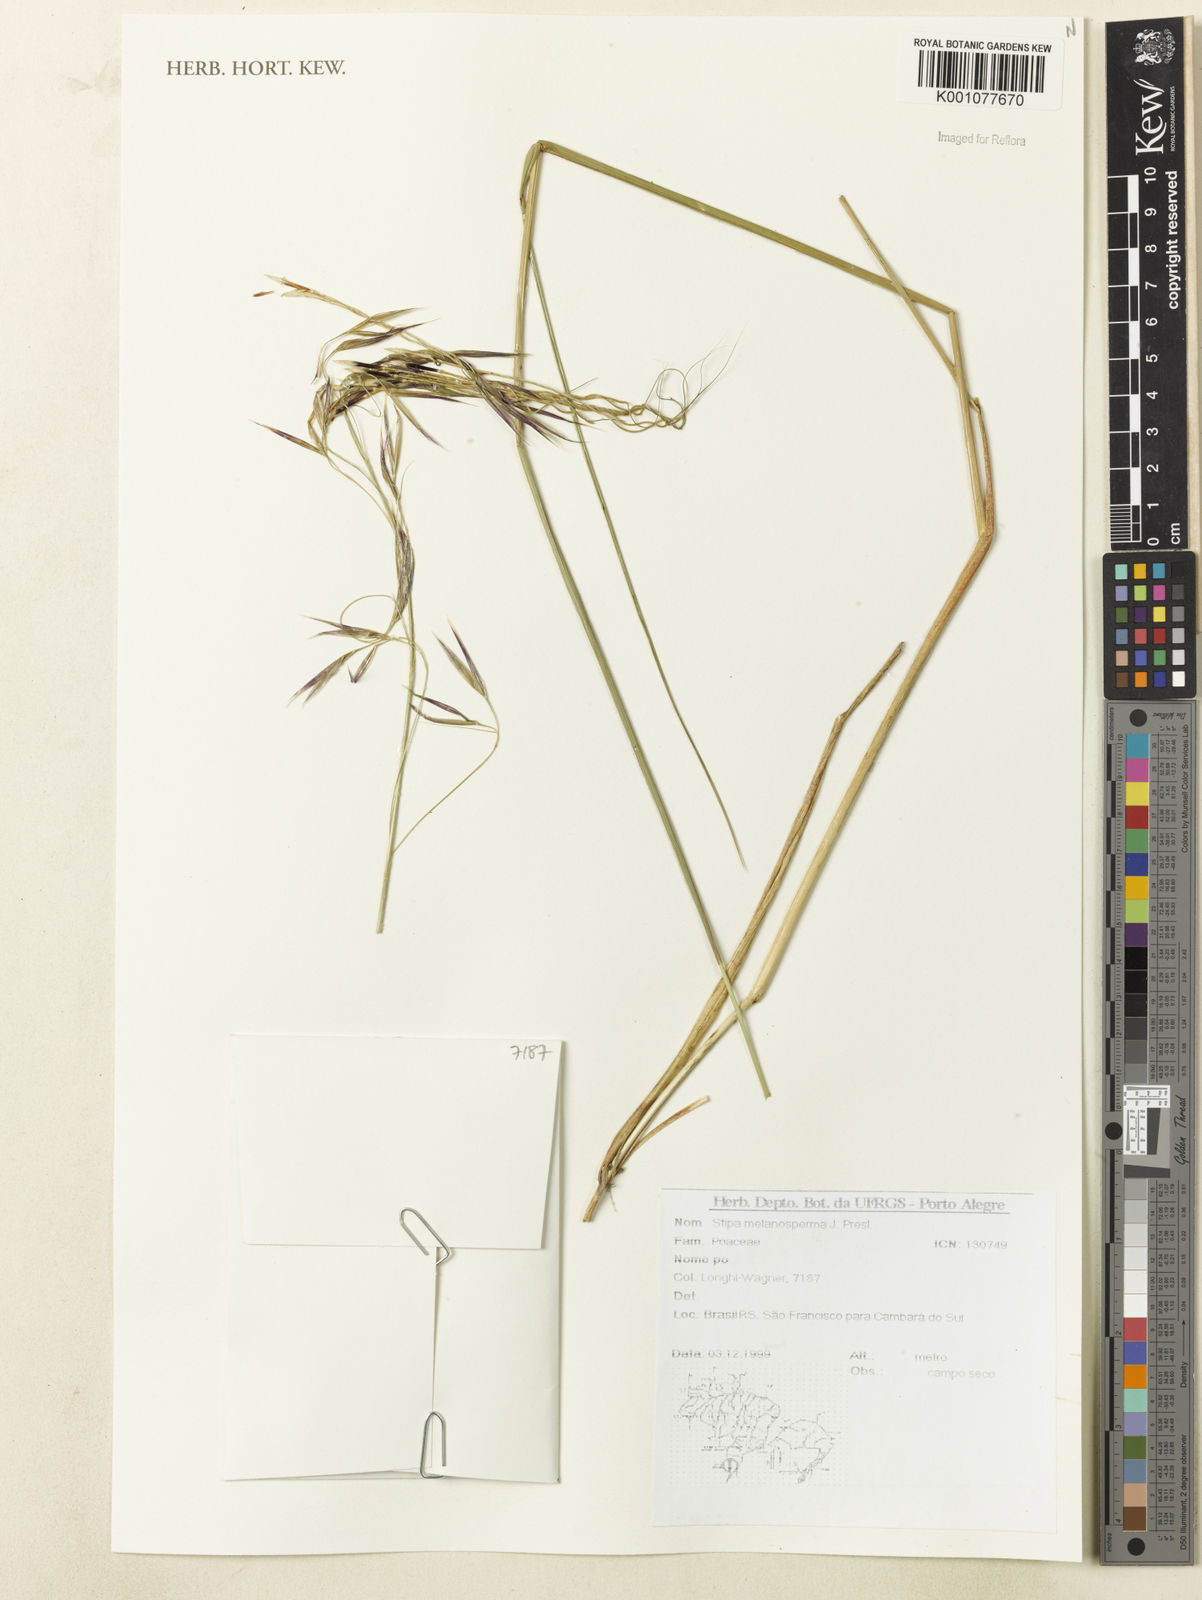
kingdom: Plantae
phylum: Tracheophyta
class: Liliopsida
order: Poales
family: Poaceae
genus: Nassella
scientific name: Nassella melanosperma
